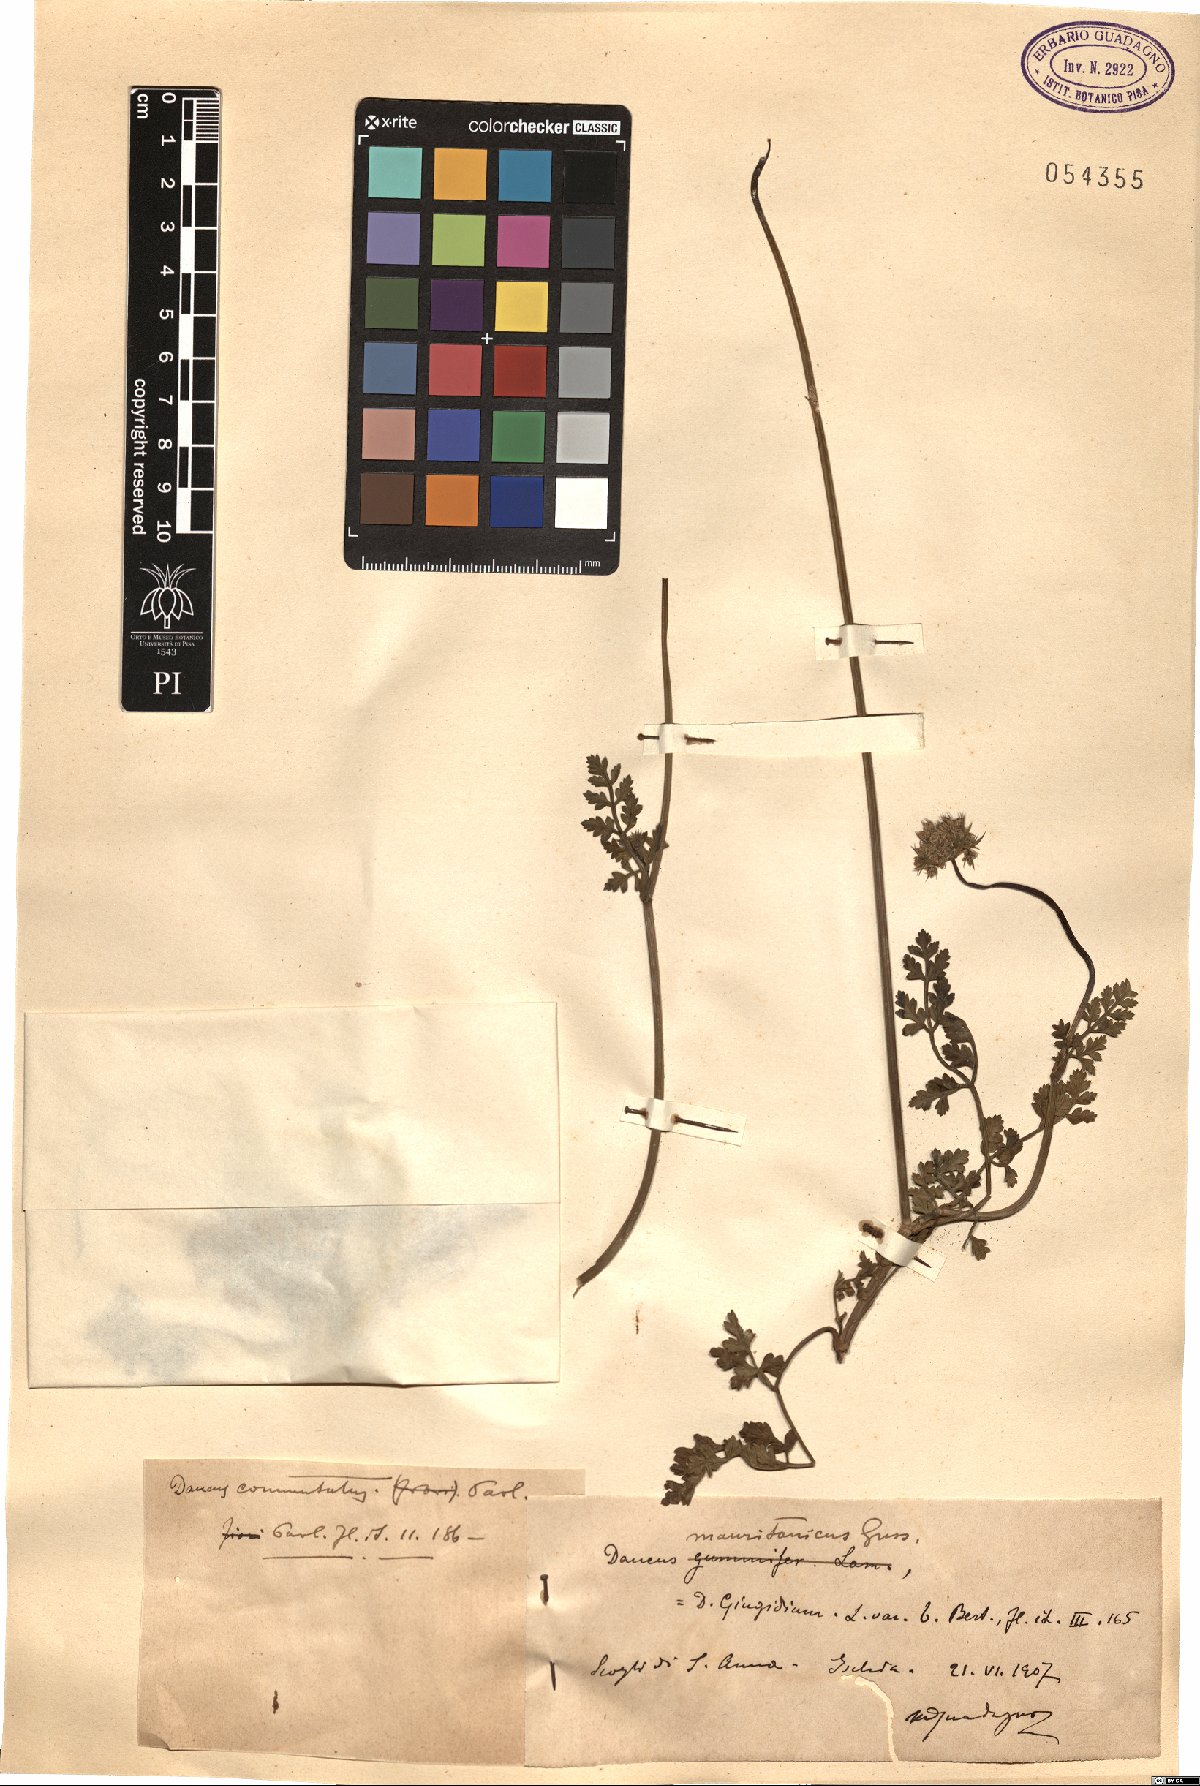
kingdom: Plantae
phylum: Tracheophyta
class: Magnoliopsida
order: Apiales
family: Apiaceae
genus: Daucus
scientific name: Daucus carota
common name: Wild carrot
